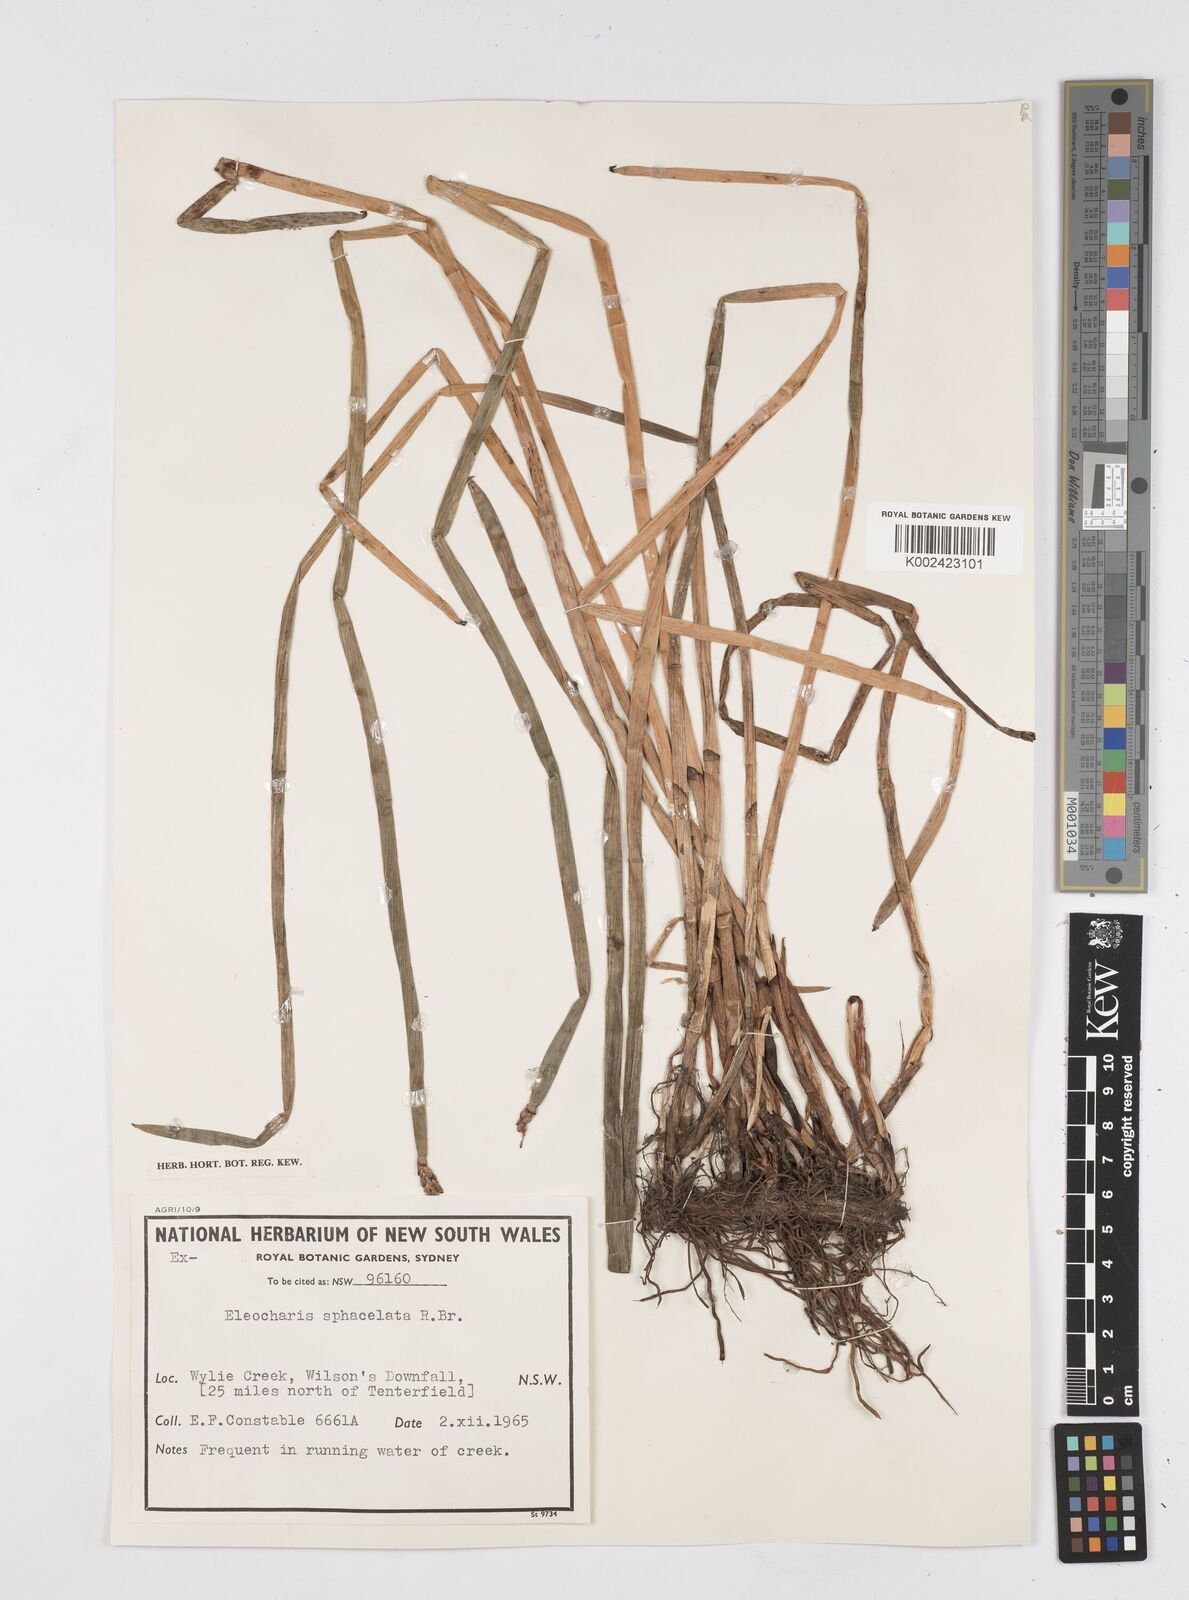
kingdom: Plantae
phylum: Tracheophyta
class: Liliopsida
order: Poales
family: Cyperaceae
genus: Eleocharis
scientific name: Eleocharis sphacelata
